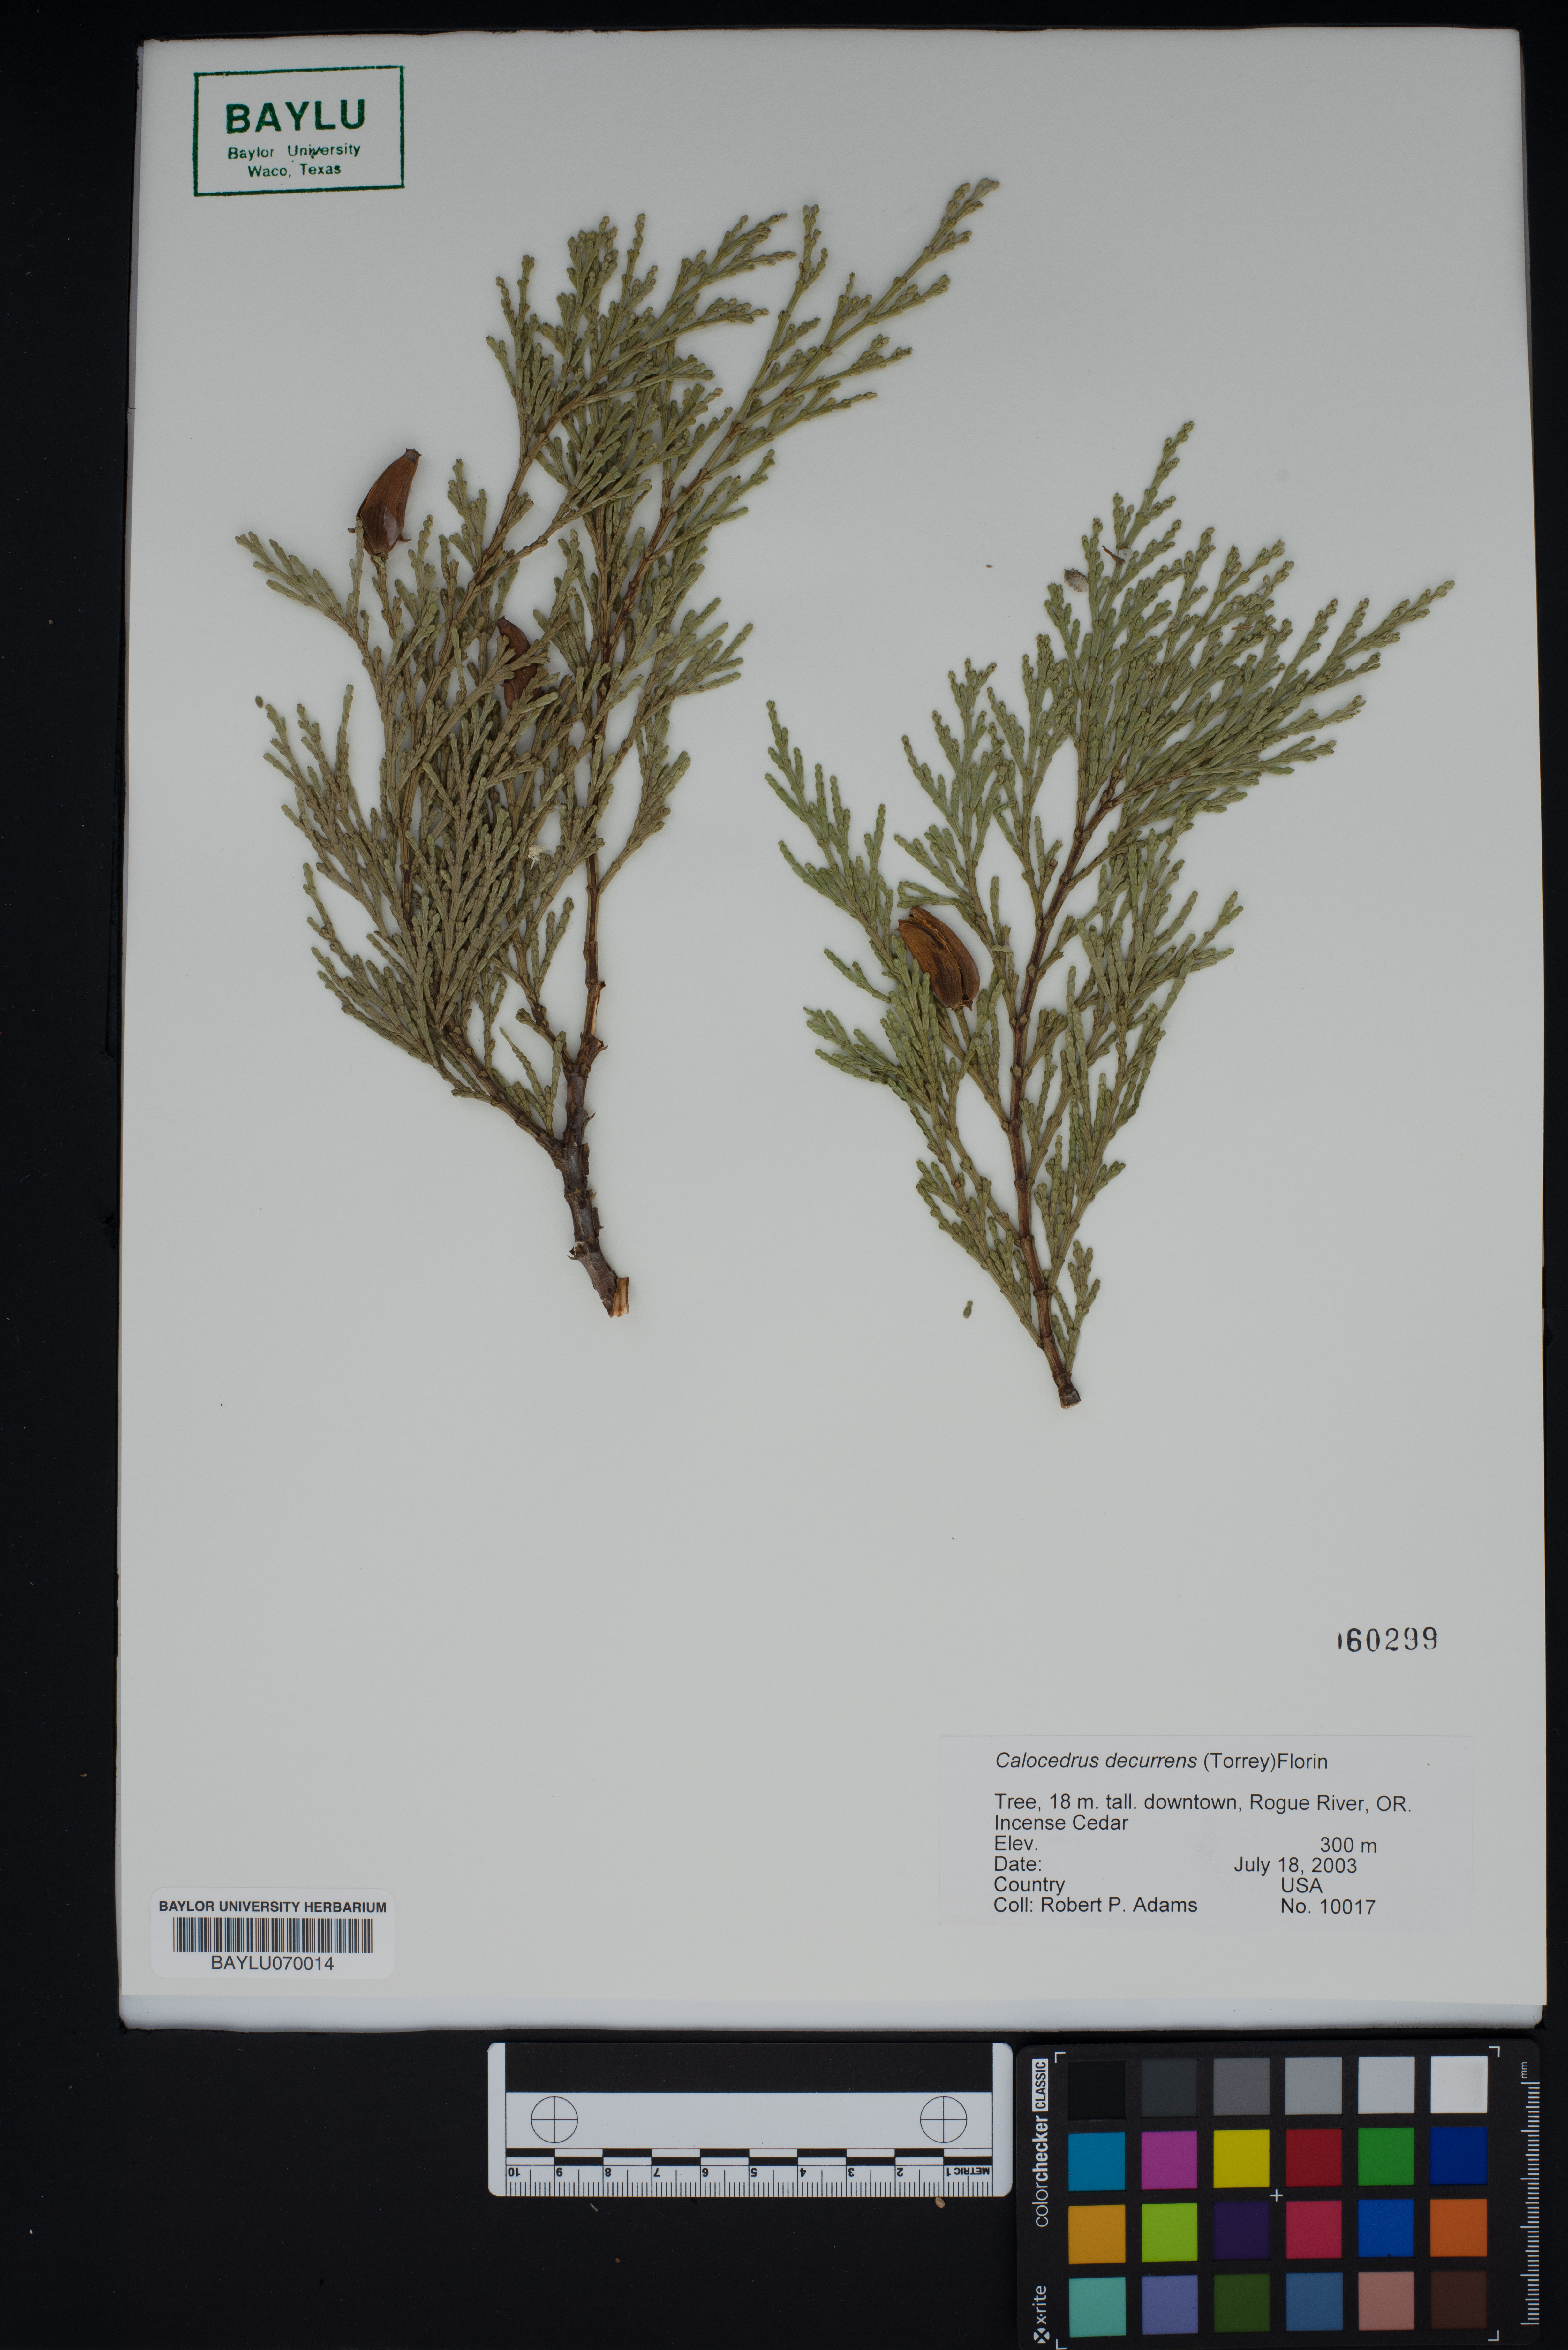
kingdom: Plantae
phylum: Tracheophyta
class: Pinopsida
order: Pinales
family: Cupressaceae
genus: Calocedrus
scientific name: Calocedrus decurrens
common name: Californian incense-cedar
